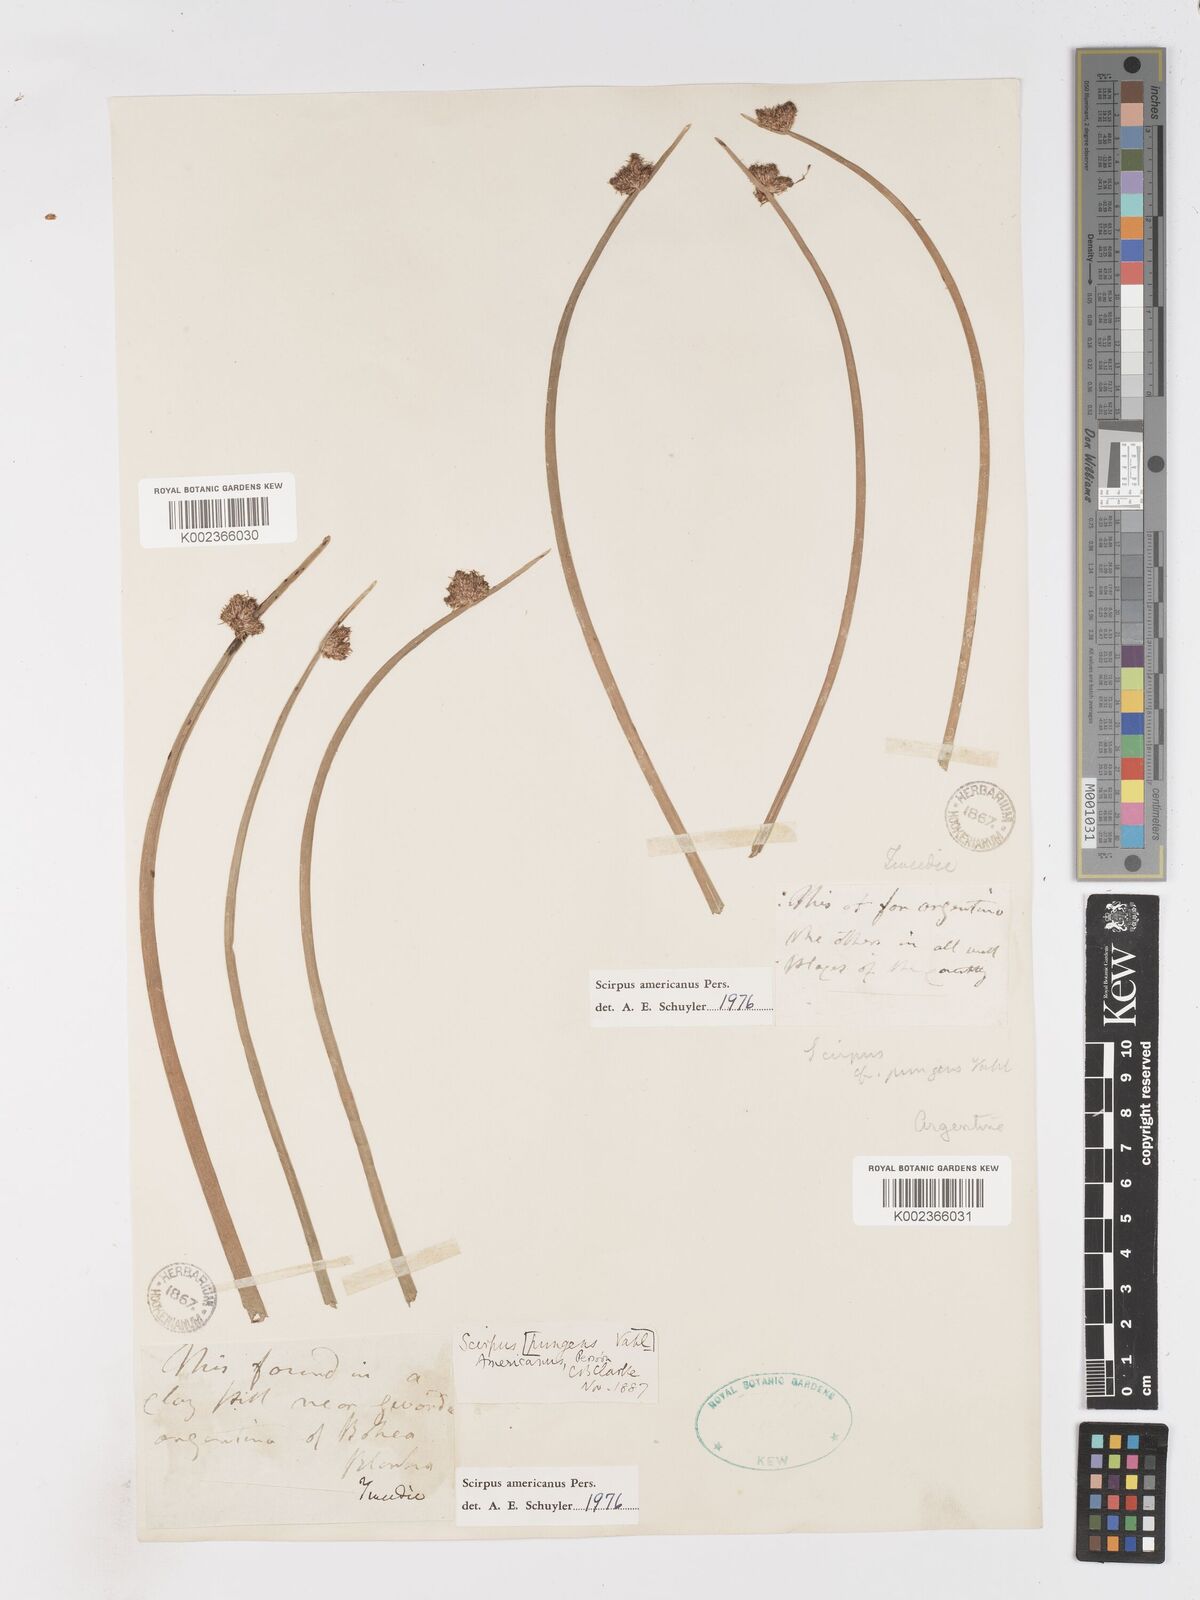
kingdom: Plantae
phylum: Tracheophyta
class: Liliopsida
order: Poales
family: Cyperaceae
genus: Schoenoplectus
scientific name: Schoenoplectus americanus
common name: American three-square bulrush
